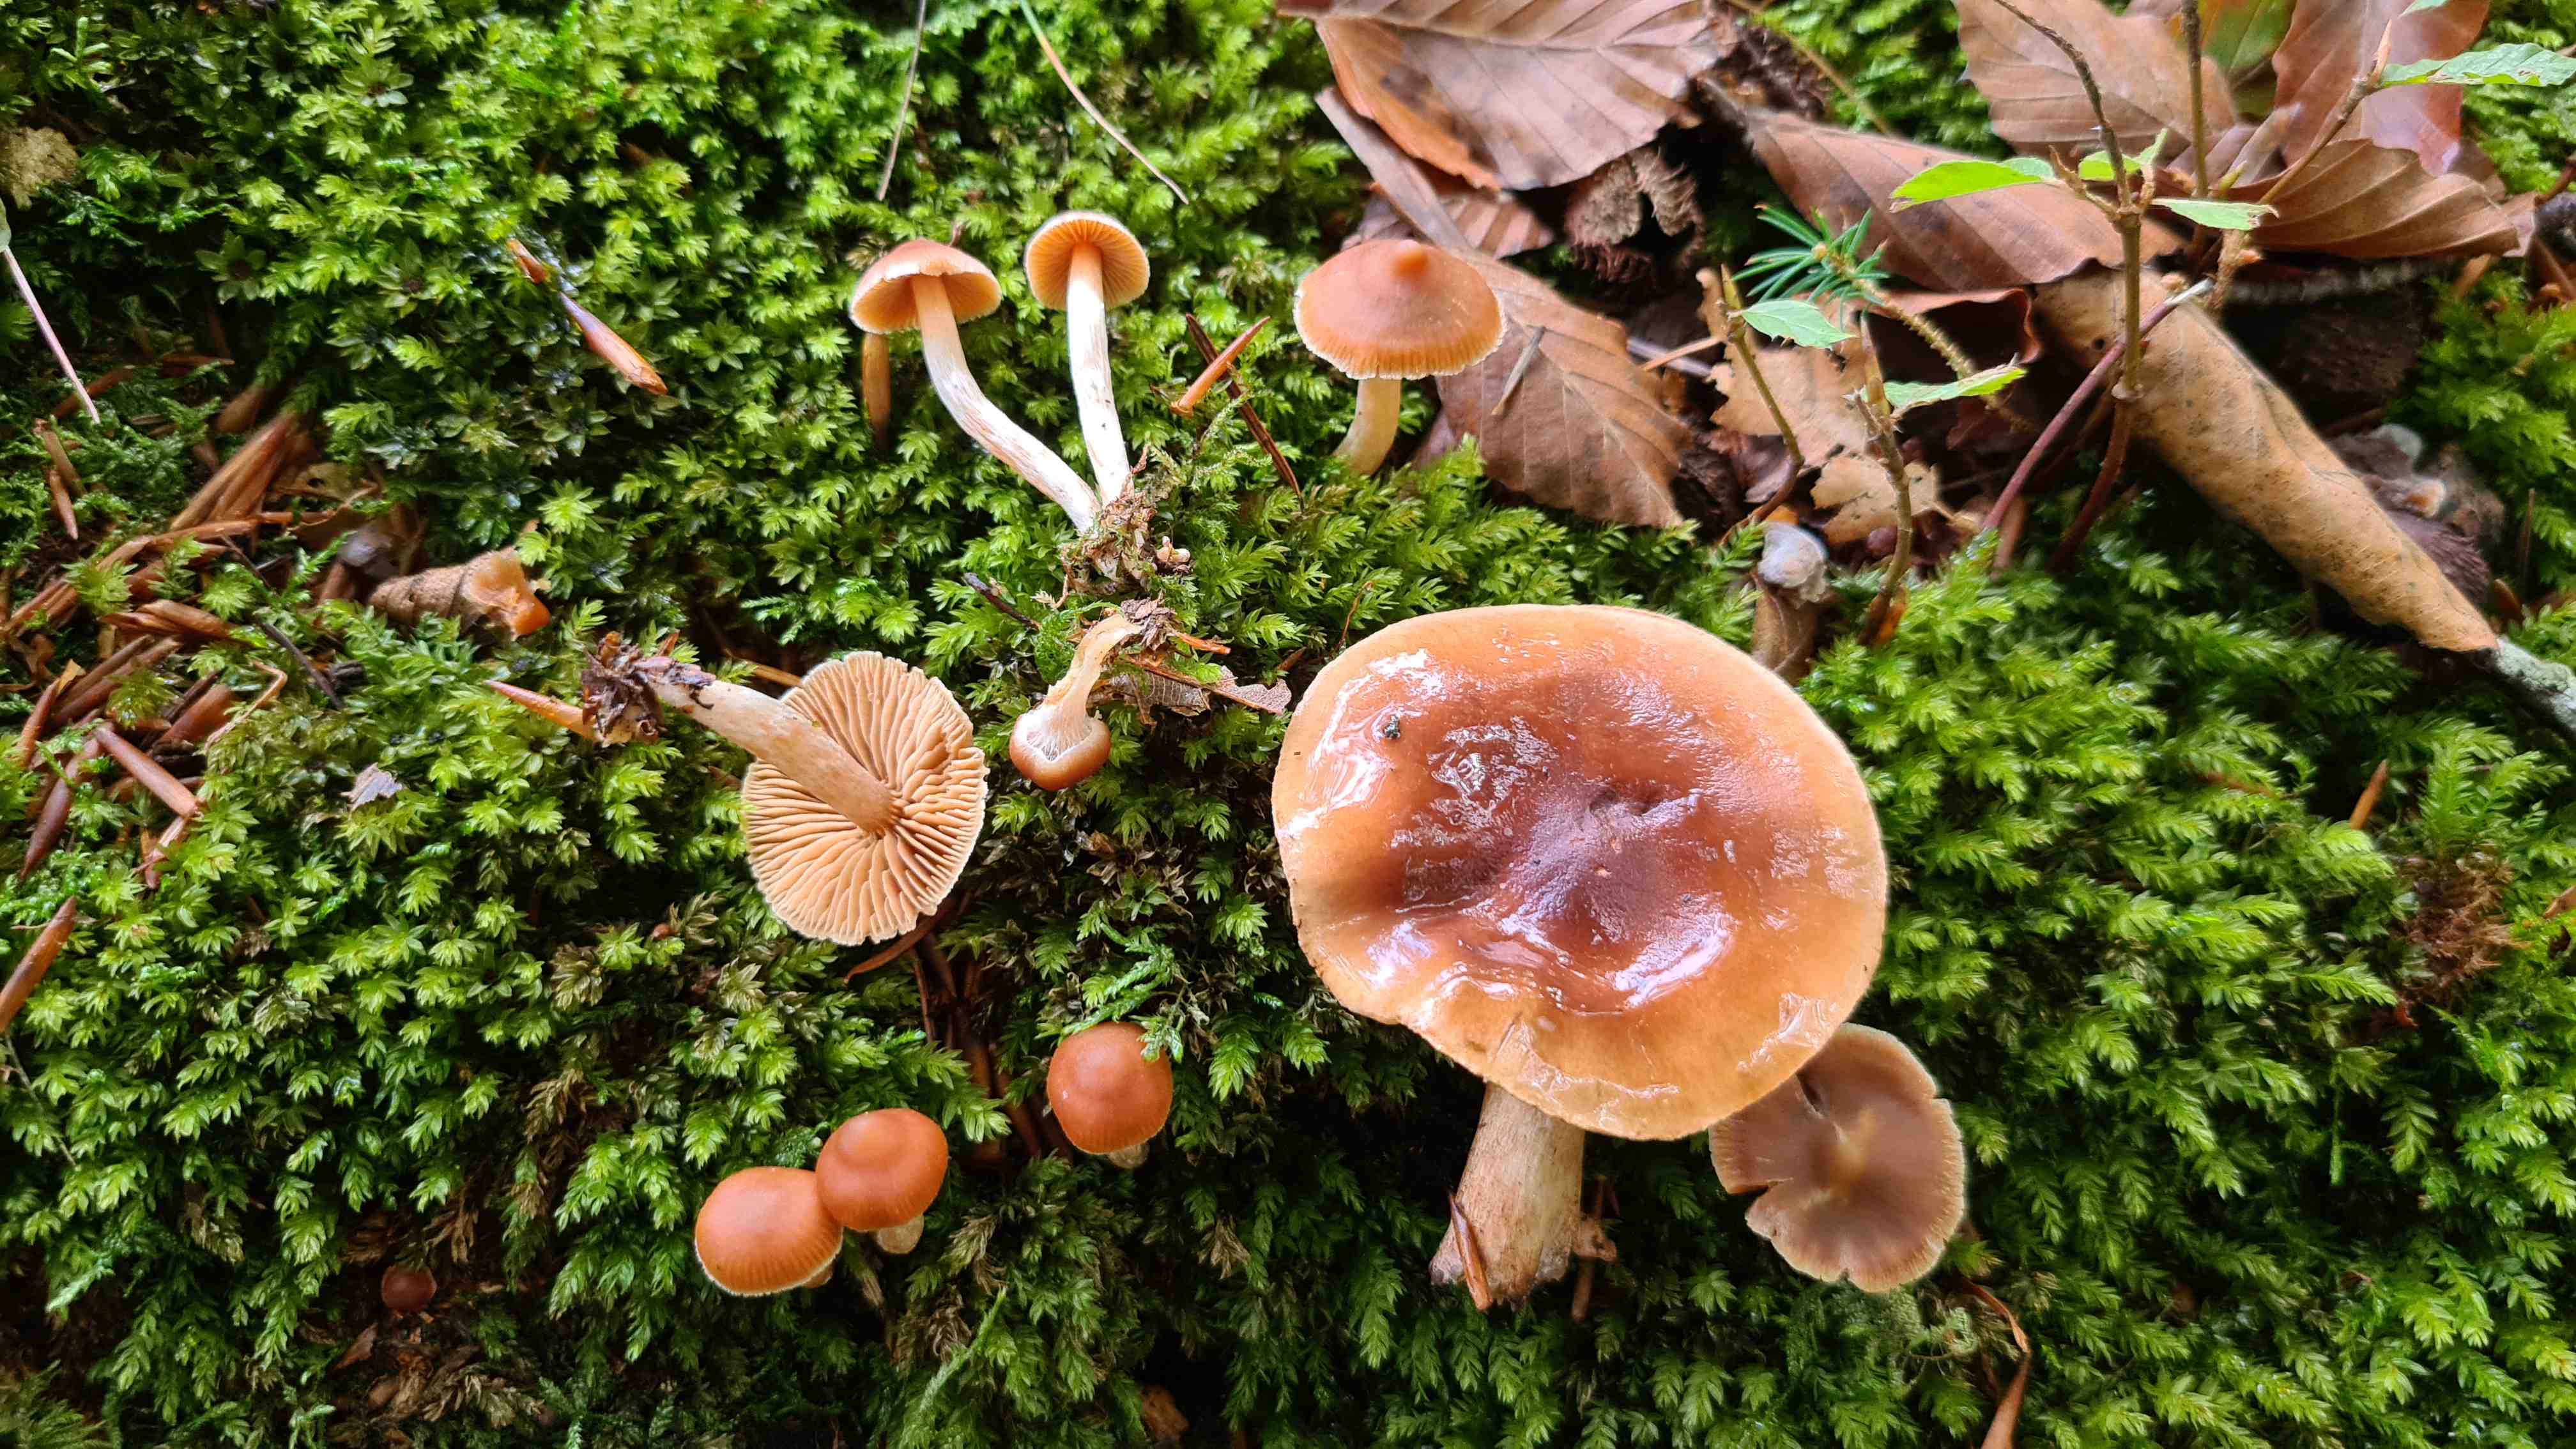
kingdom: Fungi
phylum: Basidiomycota
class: Agaricomycetes
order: Agaricales
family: Cortinariaceae
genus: Cortinarius
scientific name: Cortinarius
